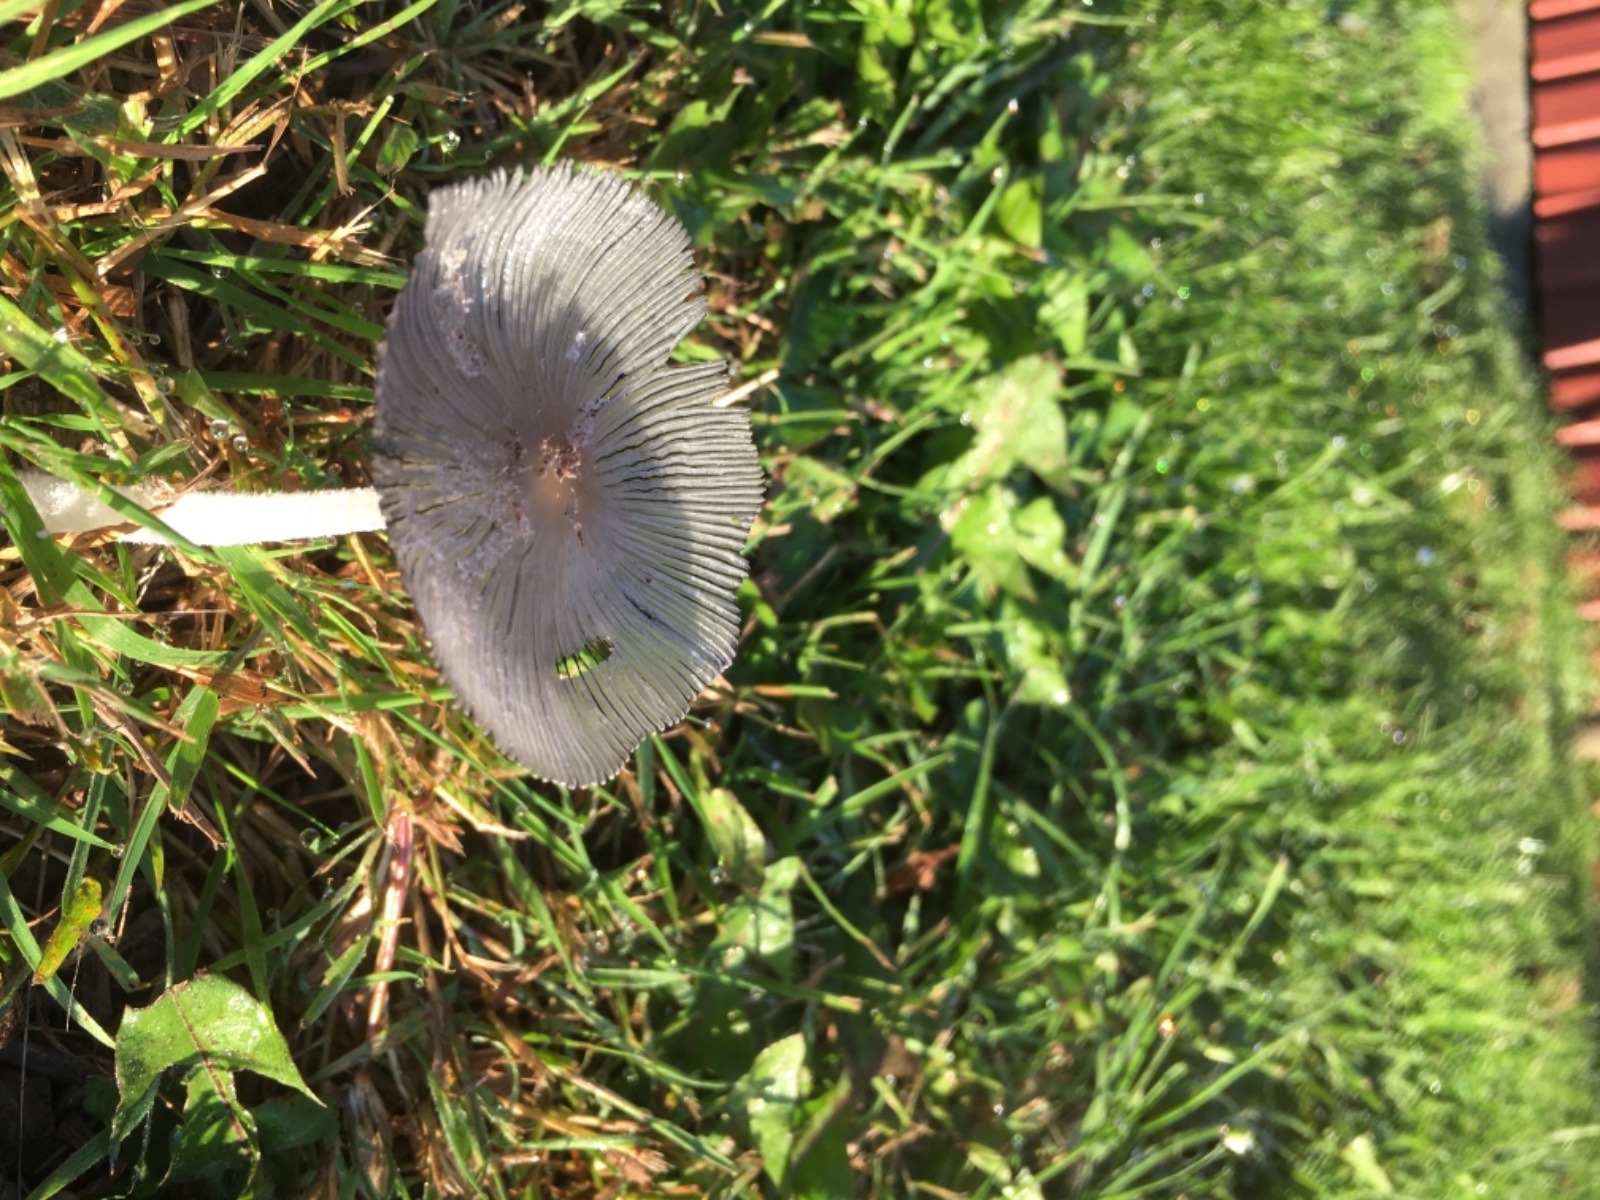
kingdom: Fungi
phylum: Basidiomycota
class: Agaricomycetes
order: Agaricales
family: Psathyrellaceae
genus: Coprinopsis
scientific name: Coprinopsis
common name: blækhat
